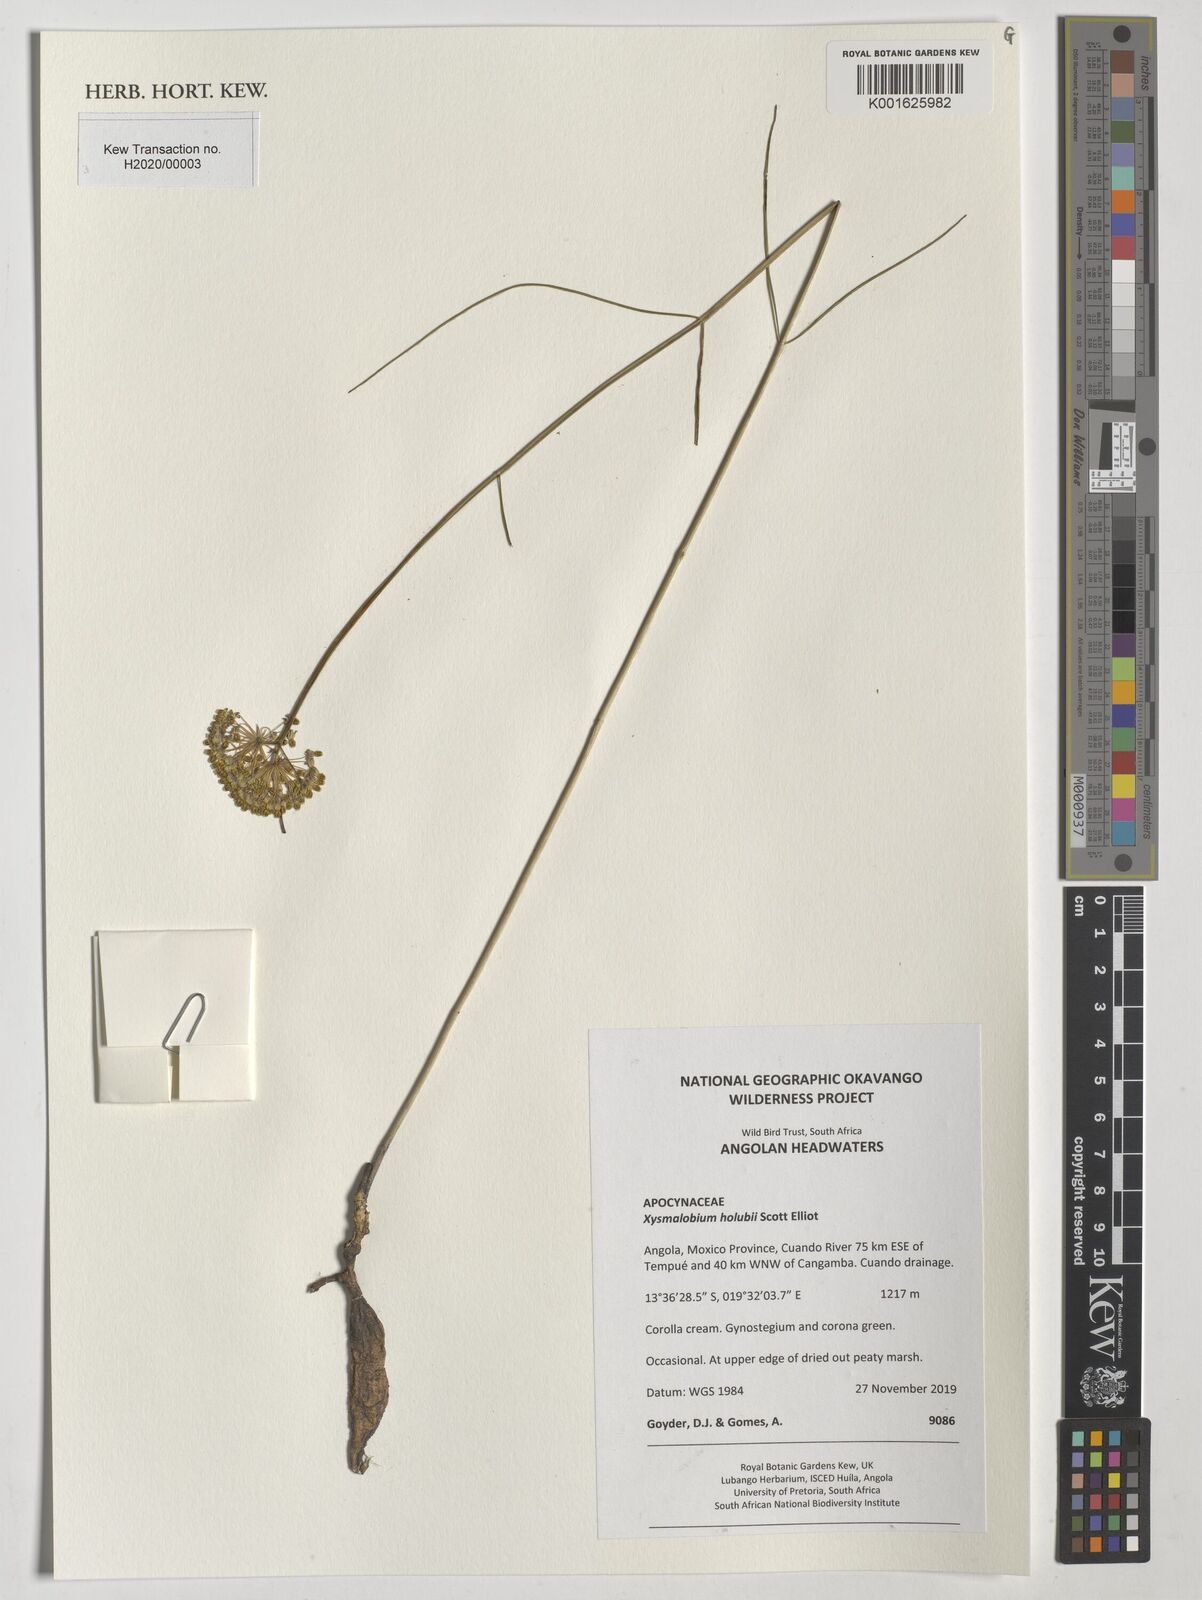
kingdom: Plantae
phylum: Tracheophyta
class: Magnoliopsida
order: Gentianales
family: Apocynaceae
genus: Xysmalobium
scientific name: Xysmalobium holubii
